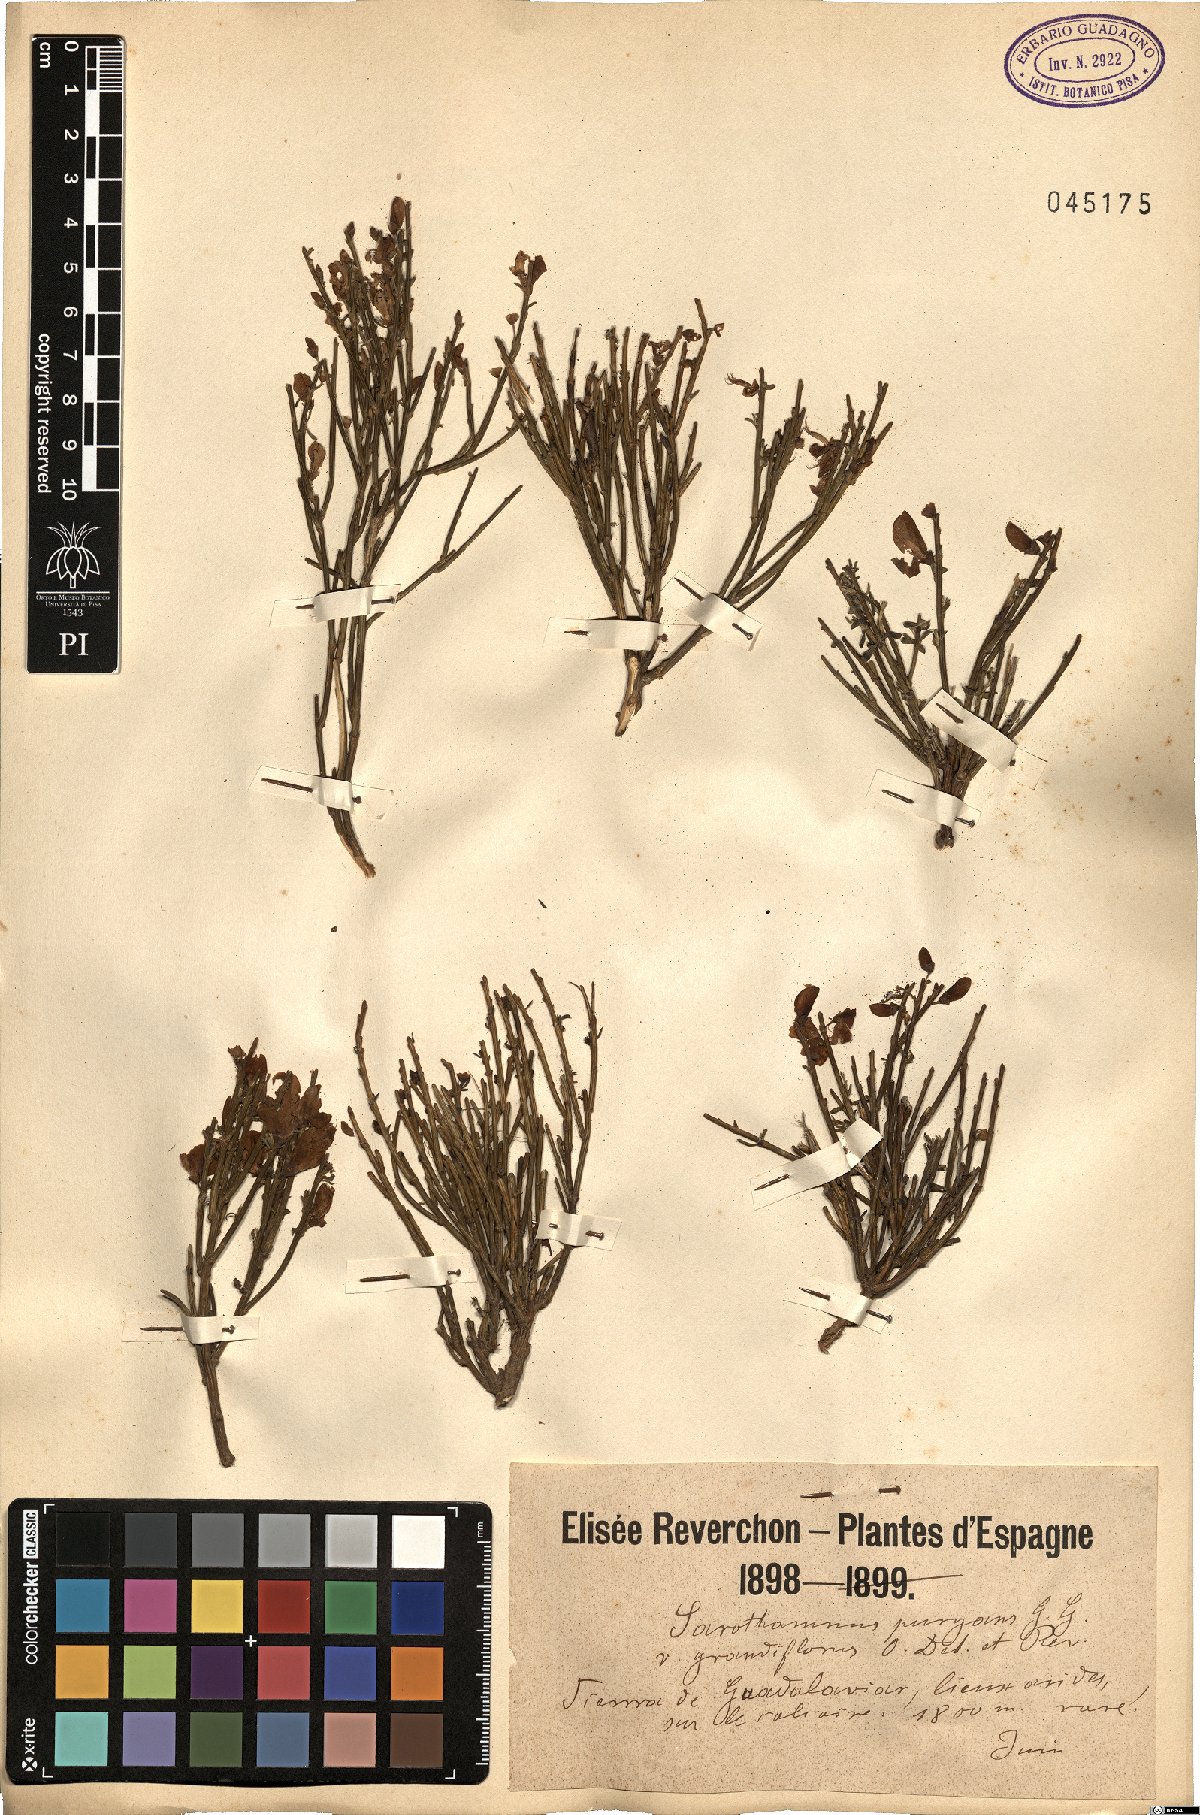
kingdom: Plantae
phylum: Tracheophyta
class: Magnoliopsida
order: Fabales
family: Fabaceae
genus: Genista
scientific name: Genista scorpius
